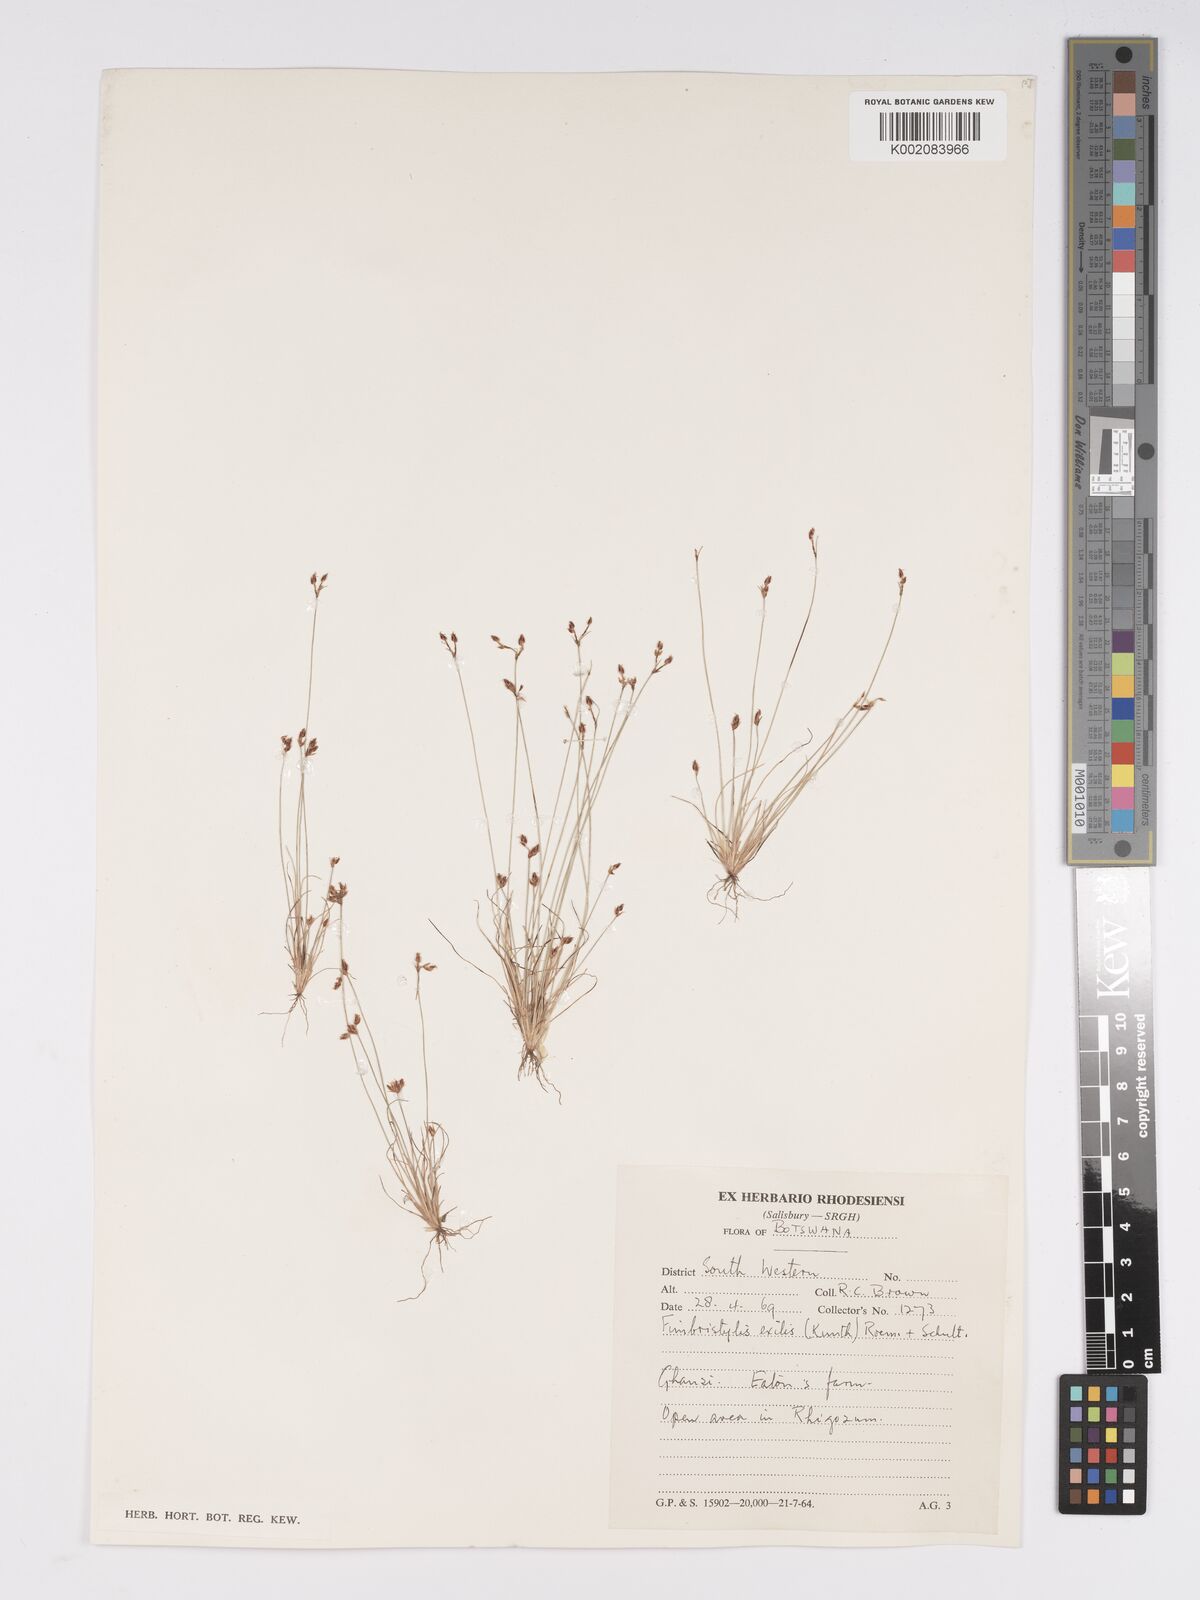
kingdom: Plantae
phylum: Tracheophyta
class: Liliopsida
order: Poales
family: Cyperaceae
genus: Bulbostylis
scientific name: Bulbostylis hispidula
